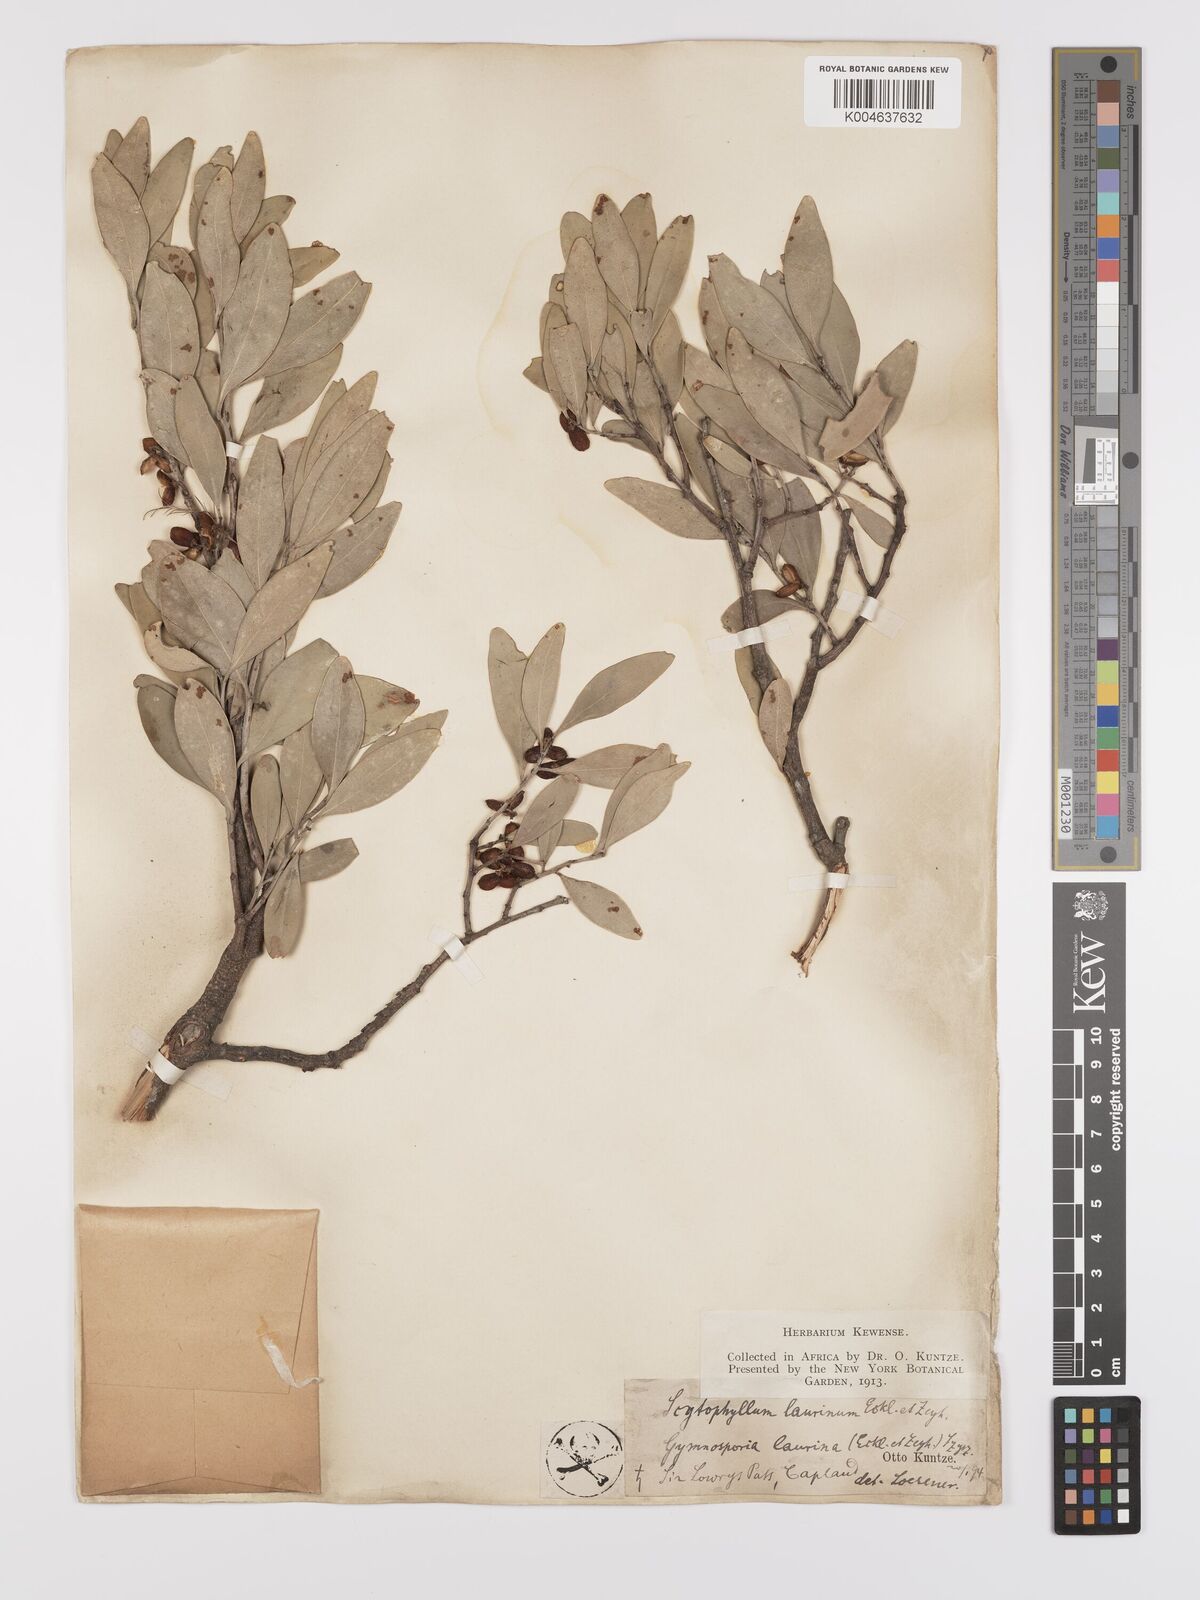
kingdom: Plantae
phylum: Tracheophyta
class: Magnoliopsida
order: Celastrales
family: Celastraceae
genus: Gymnosporia
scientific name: Gymnosporia laurina
